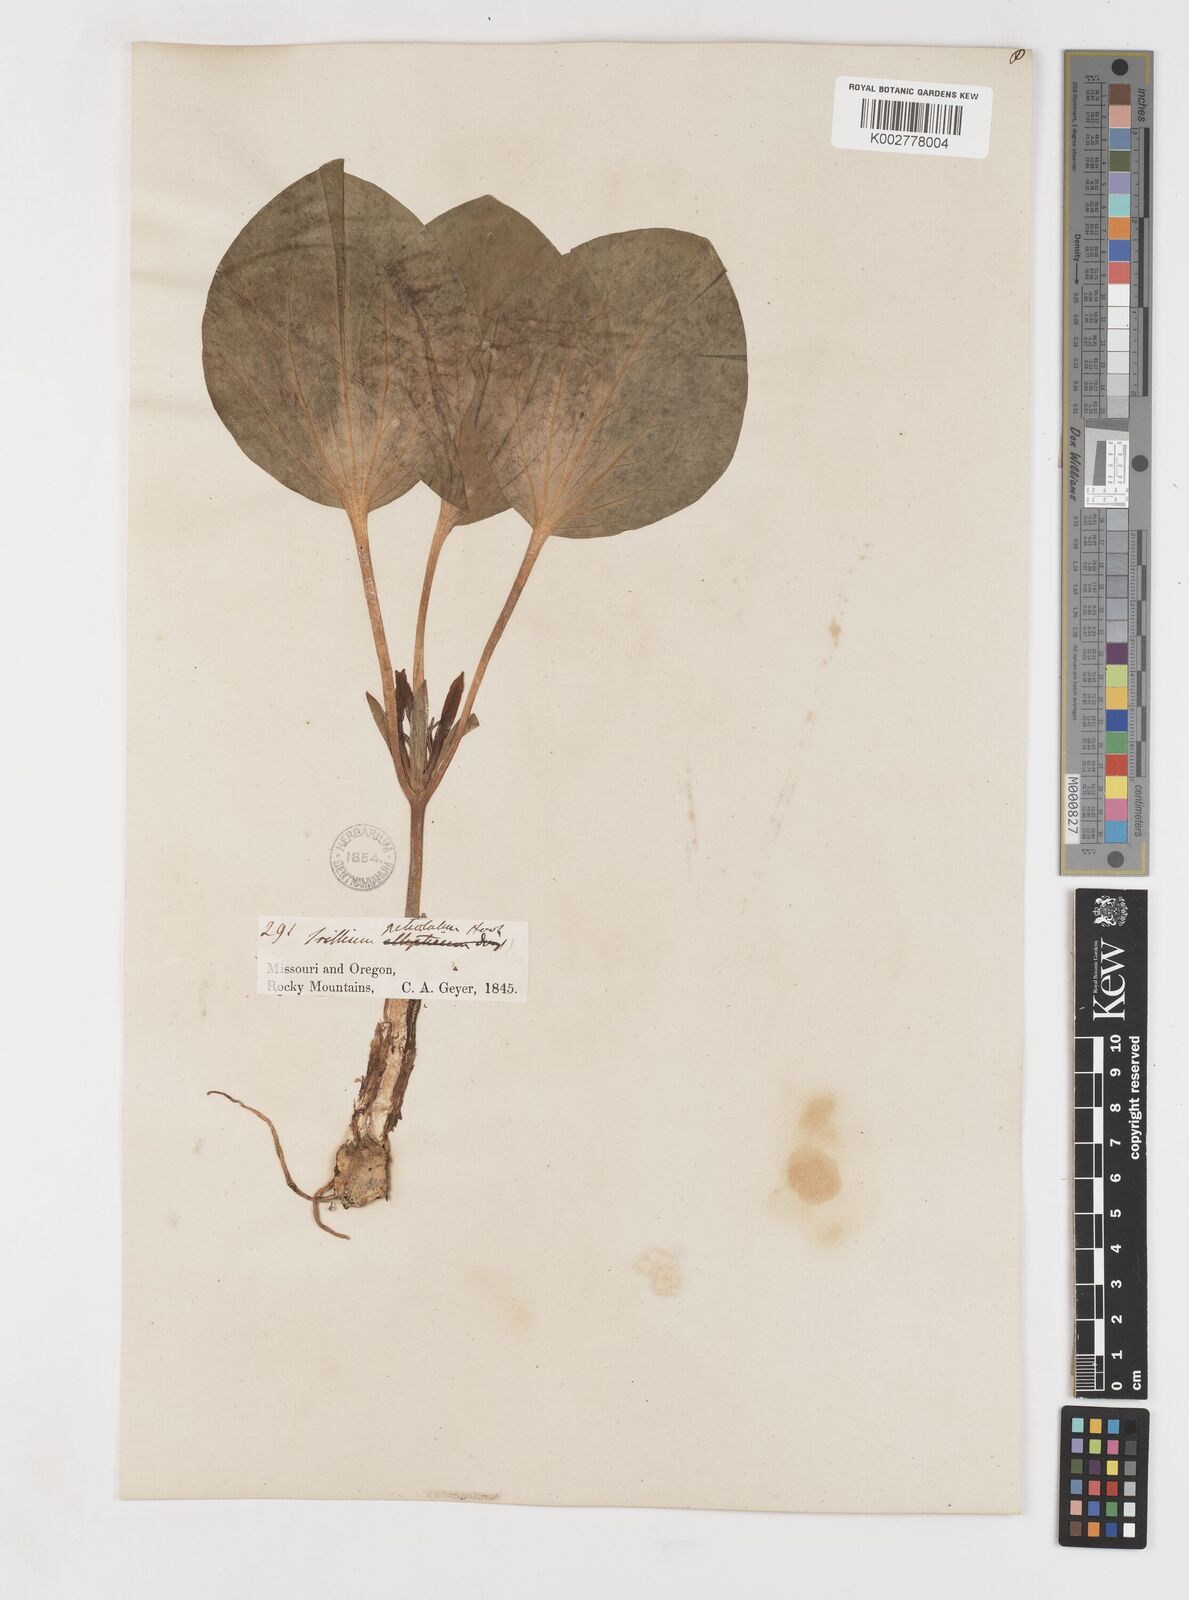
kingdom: Plantae
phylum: Tracheophyta
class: Liliopsida
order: Liliales
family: Melanthiaceae
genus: Trillium
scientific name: Trillium petiolatum
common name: Idaho trillium
